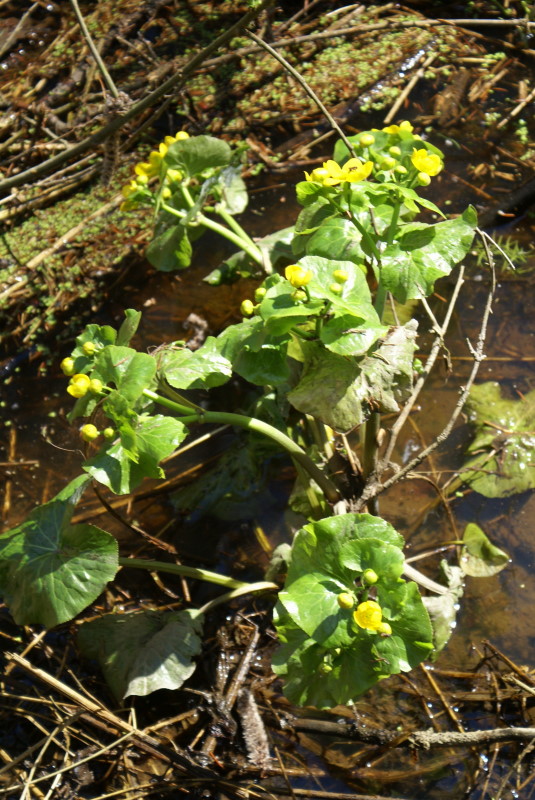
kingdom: Plantae
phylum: Tracheophyta
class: Magnoliopsida
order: Ranunculales
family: Ranunculaceae
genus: Caltha
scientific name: Caltha palustris
